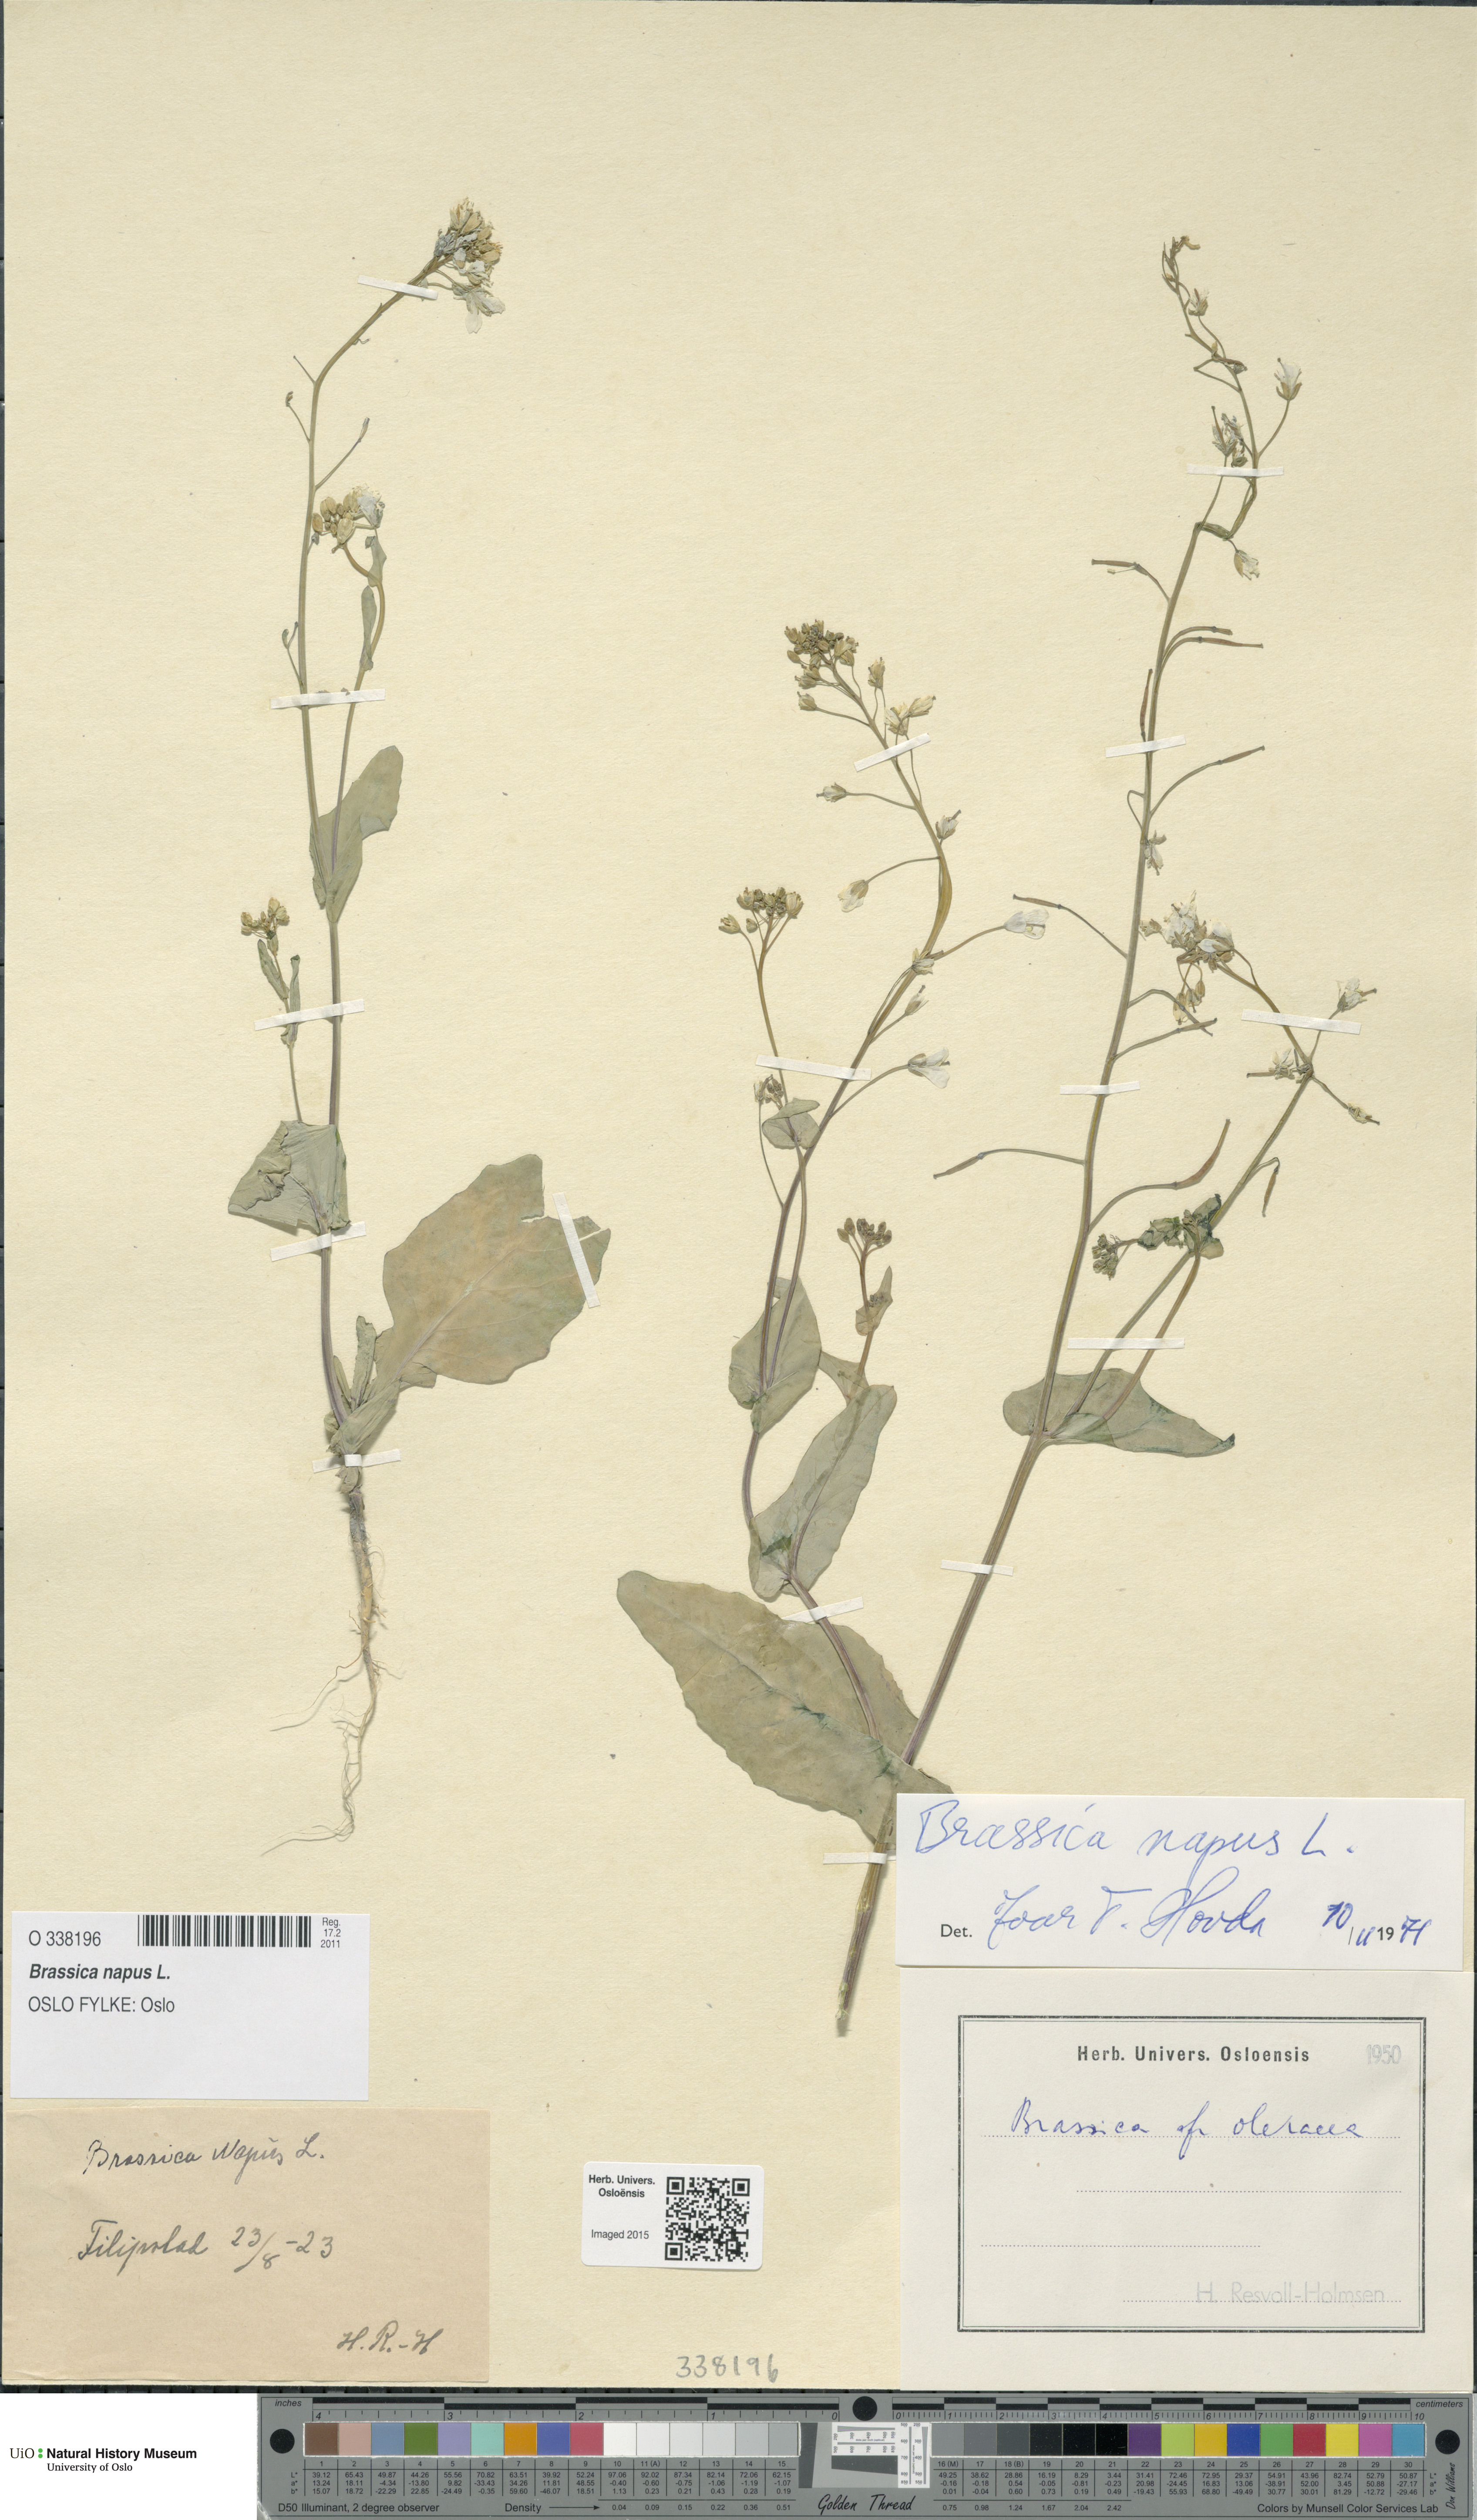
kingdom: Plantae
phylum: Tracheophyta
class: Magnoliopsida
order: Brassicales
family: Brassicaceae
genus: Brassica
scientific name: Brassica napus
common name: Rape
